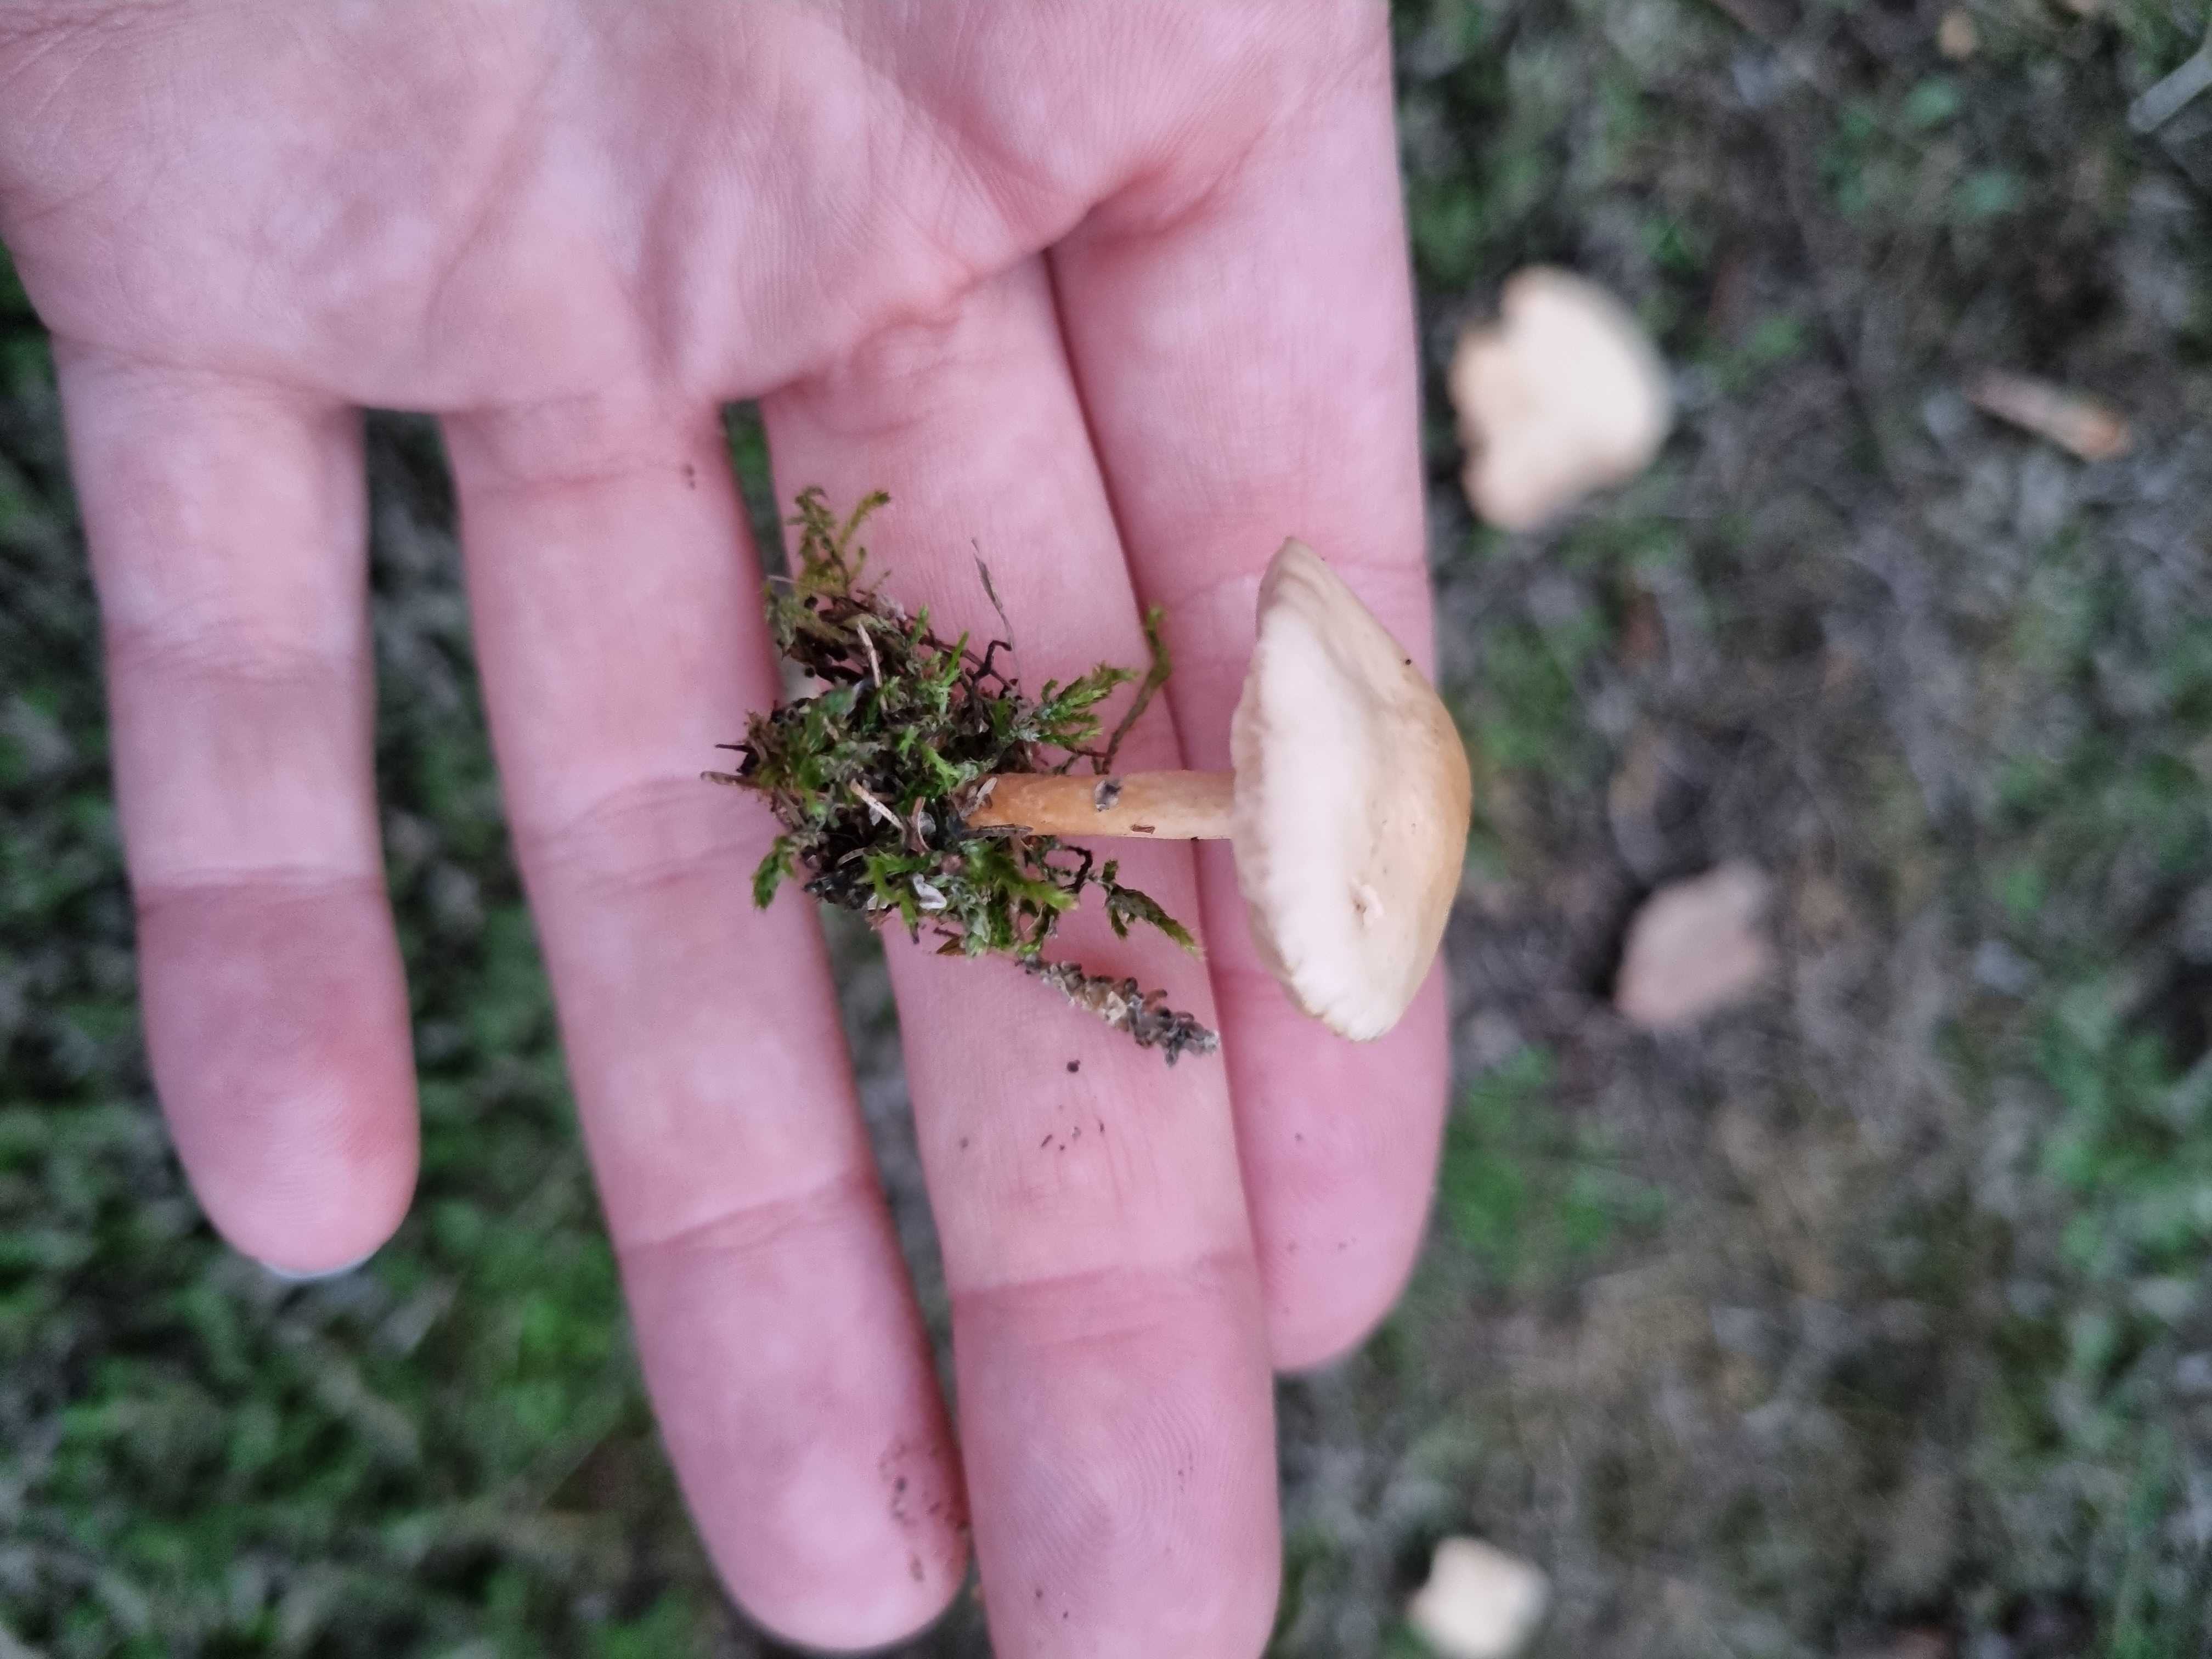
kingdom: Fungi
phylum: Basidiomycota
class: Agaricomycetes
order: Agaricales
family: Marasmiaceae
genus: Marasmius
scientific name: Marasmius oreades
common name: elledans-bruskhat
